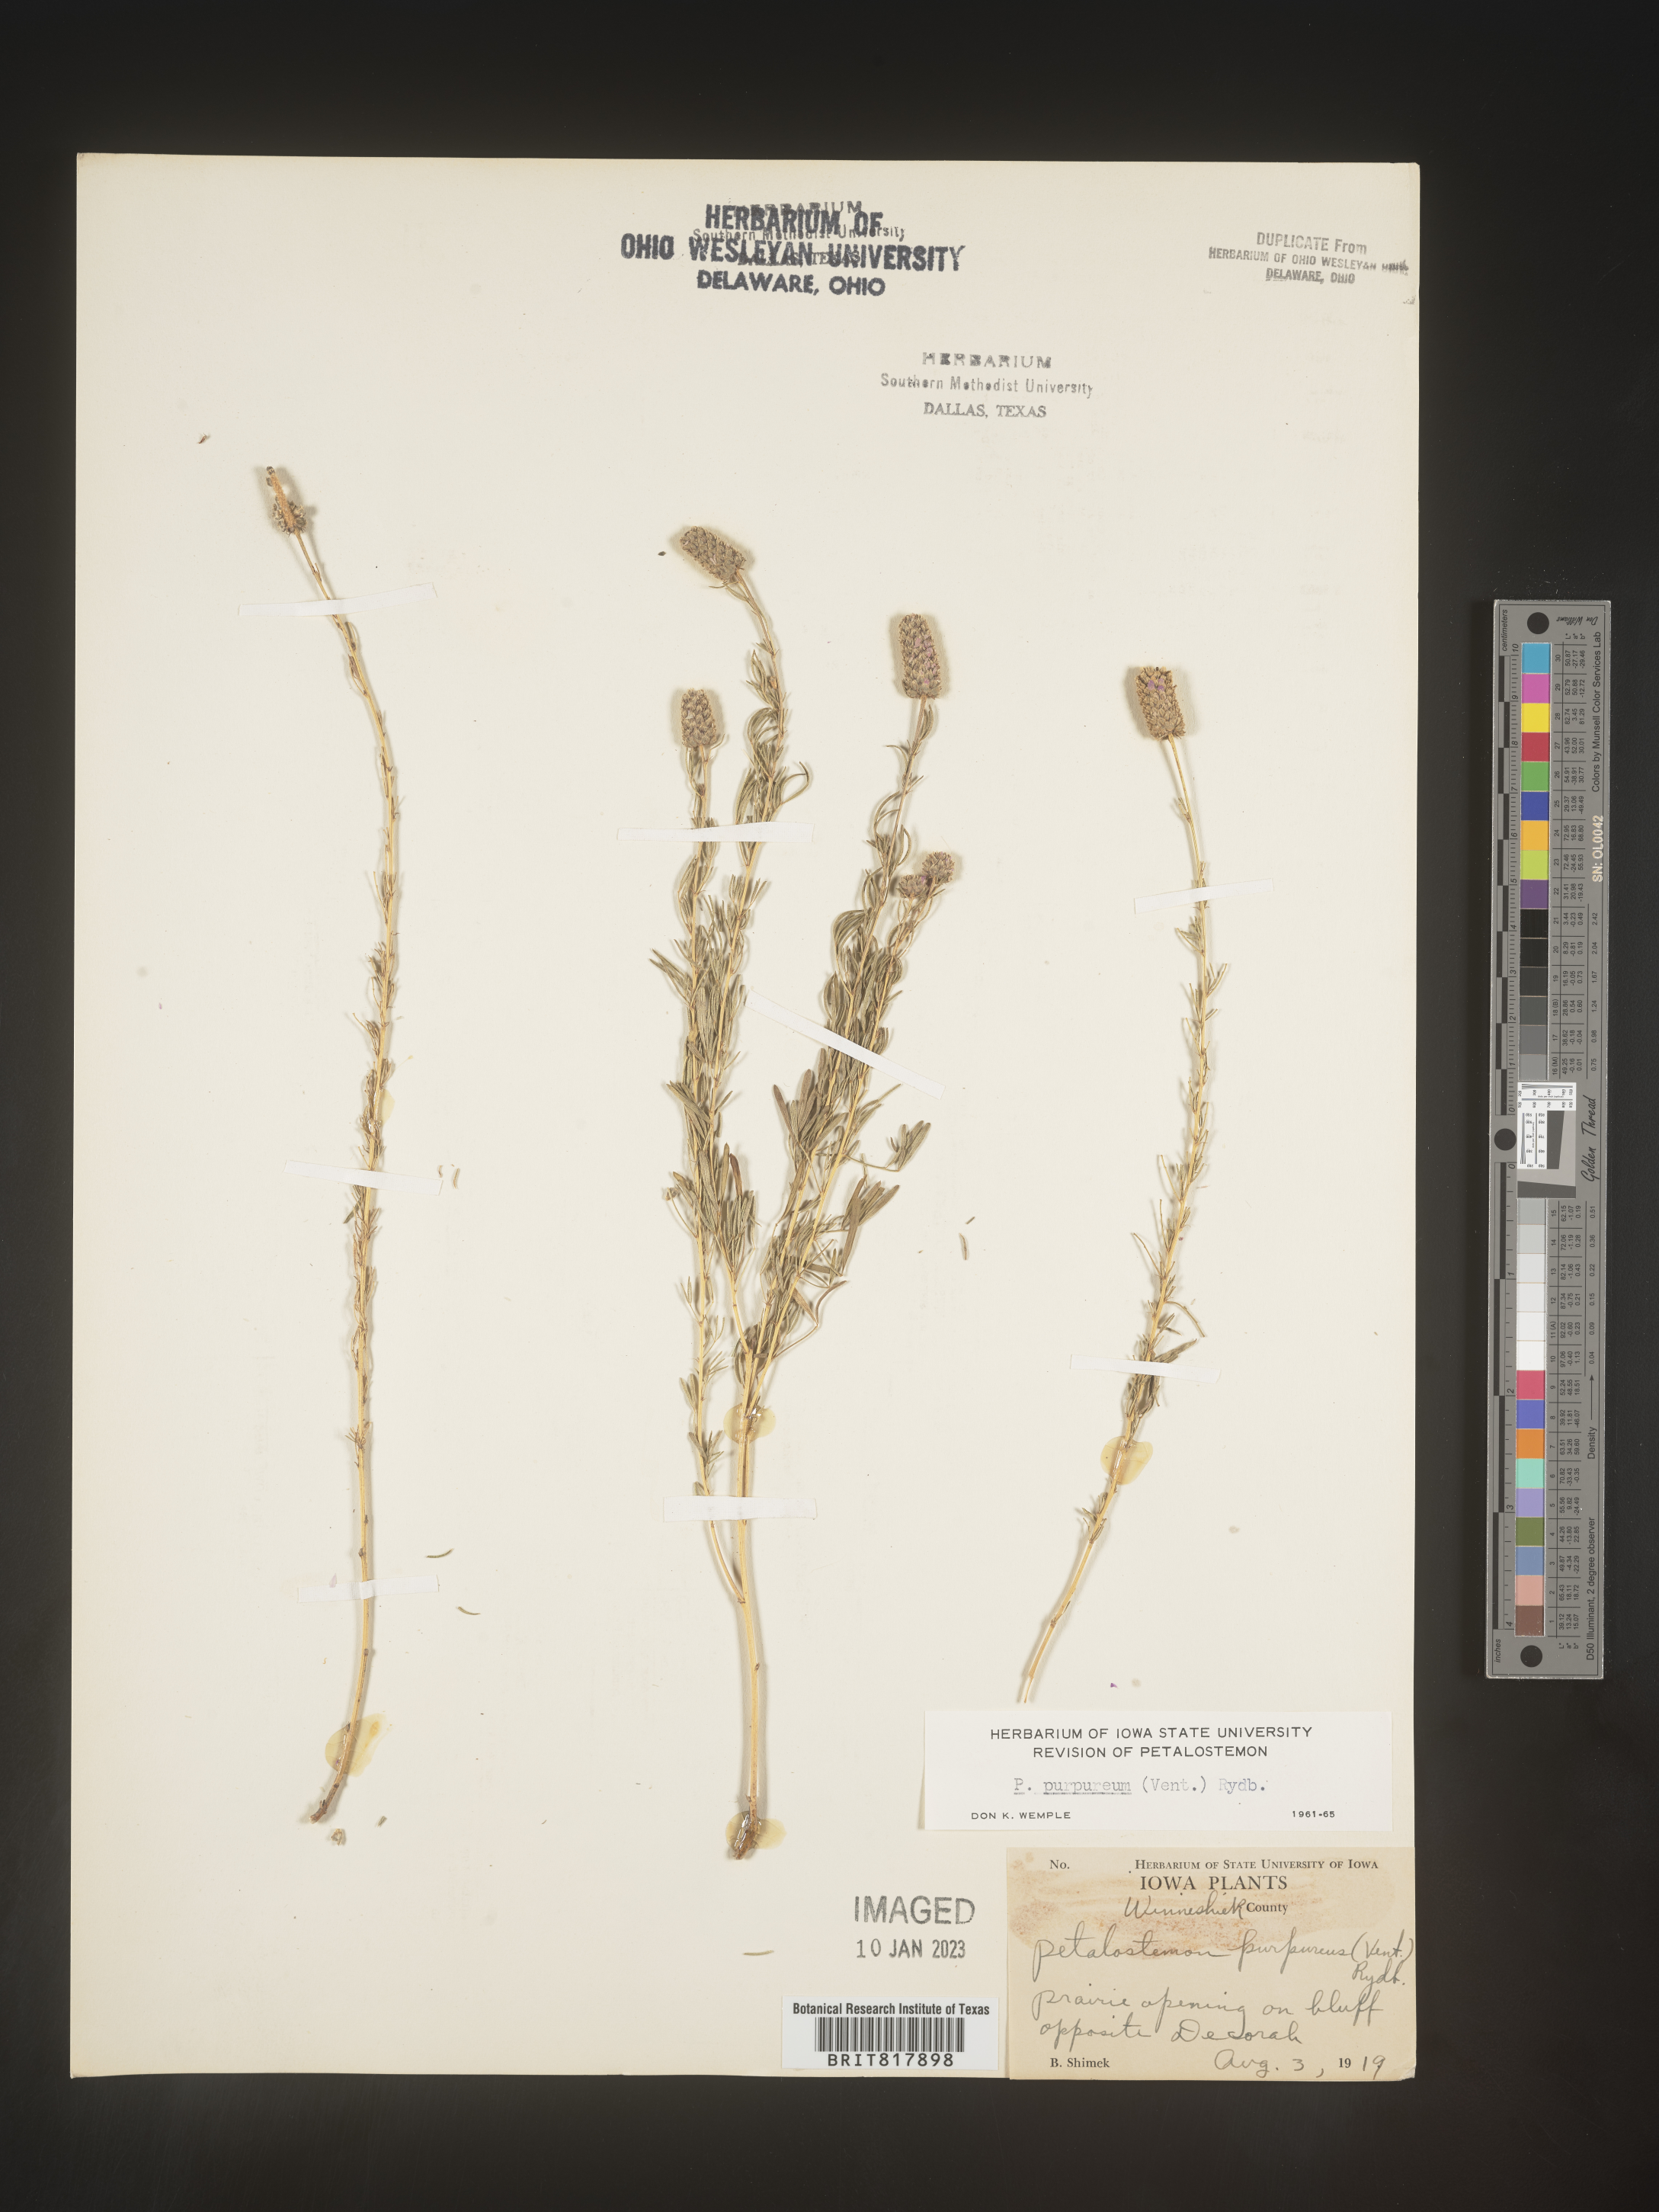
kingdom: Plantae
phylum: Tracheophyta
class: Magnoliopsida
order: Fabales
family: Fabaceae
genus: Dalea
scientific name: Dalea purpurea
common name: Purple prairie-clover
